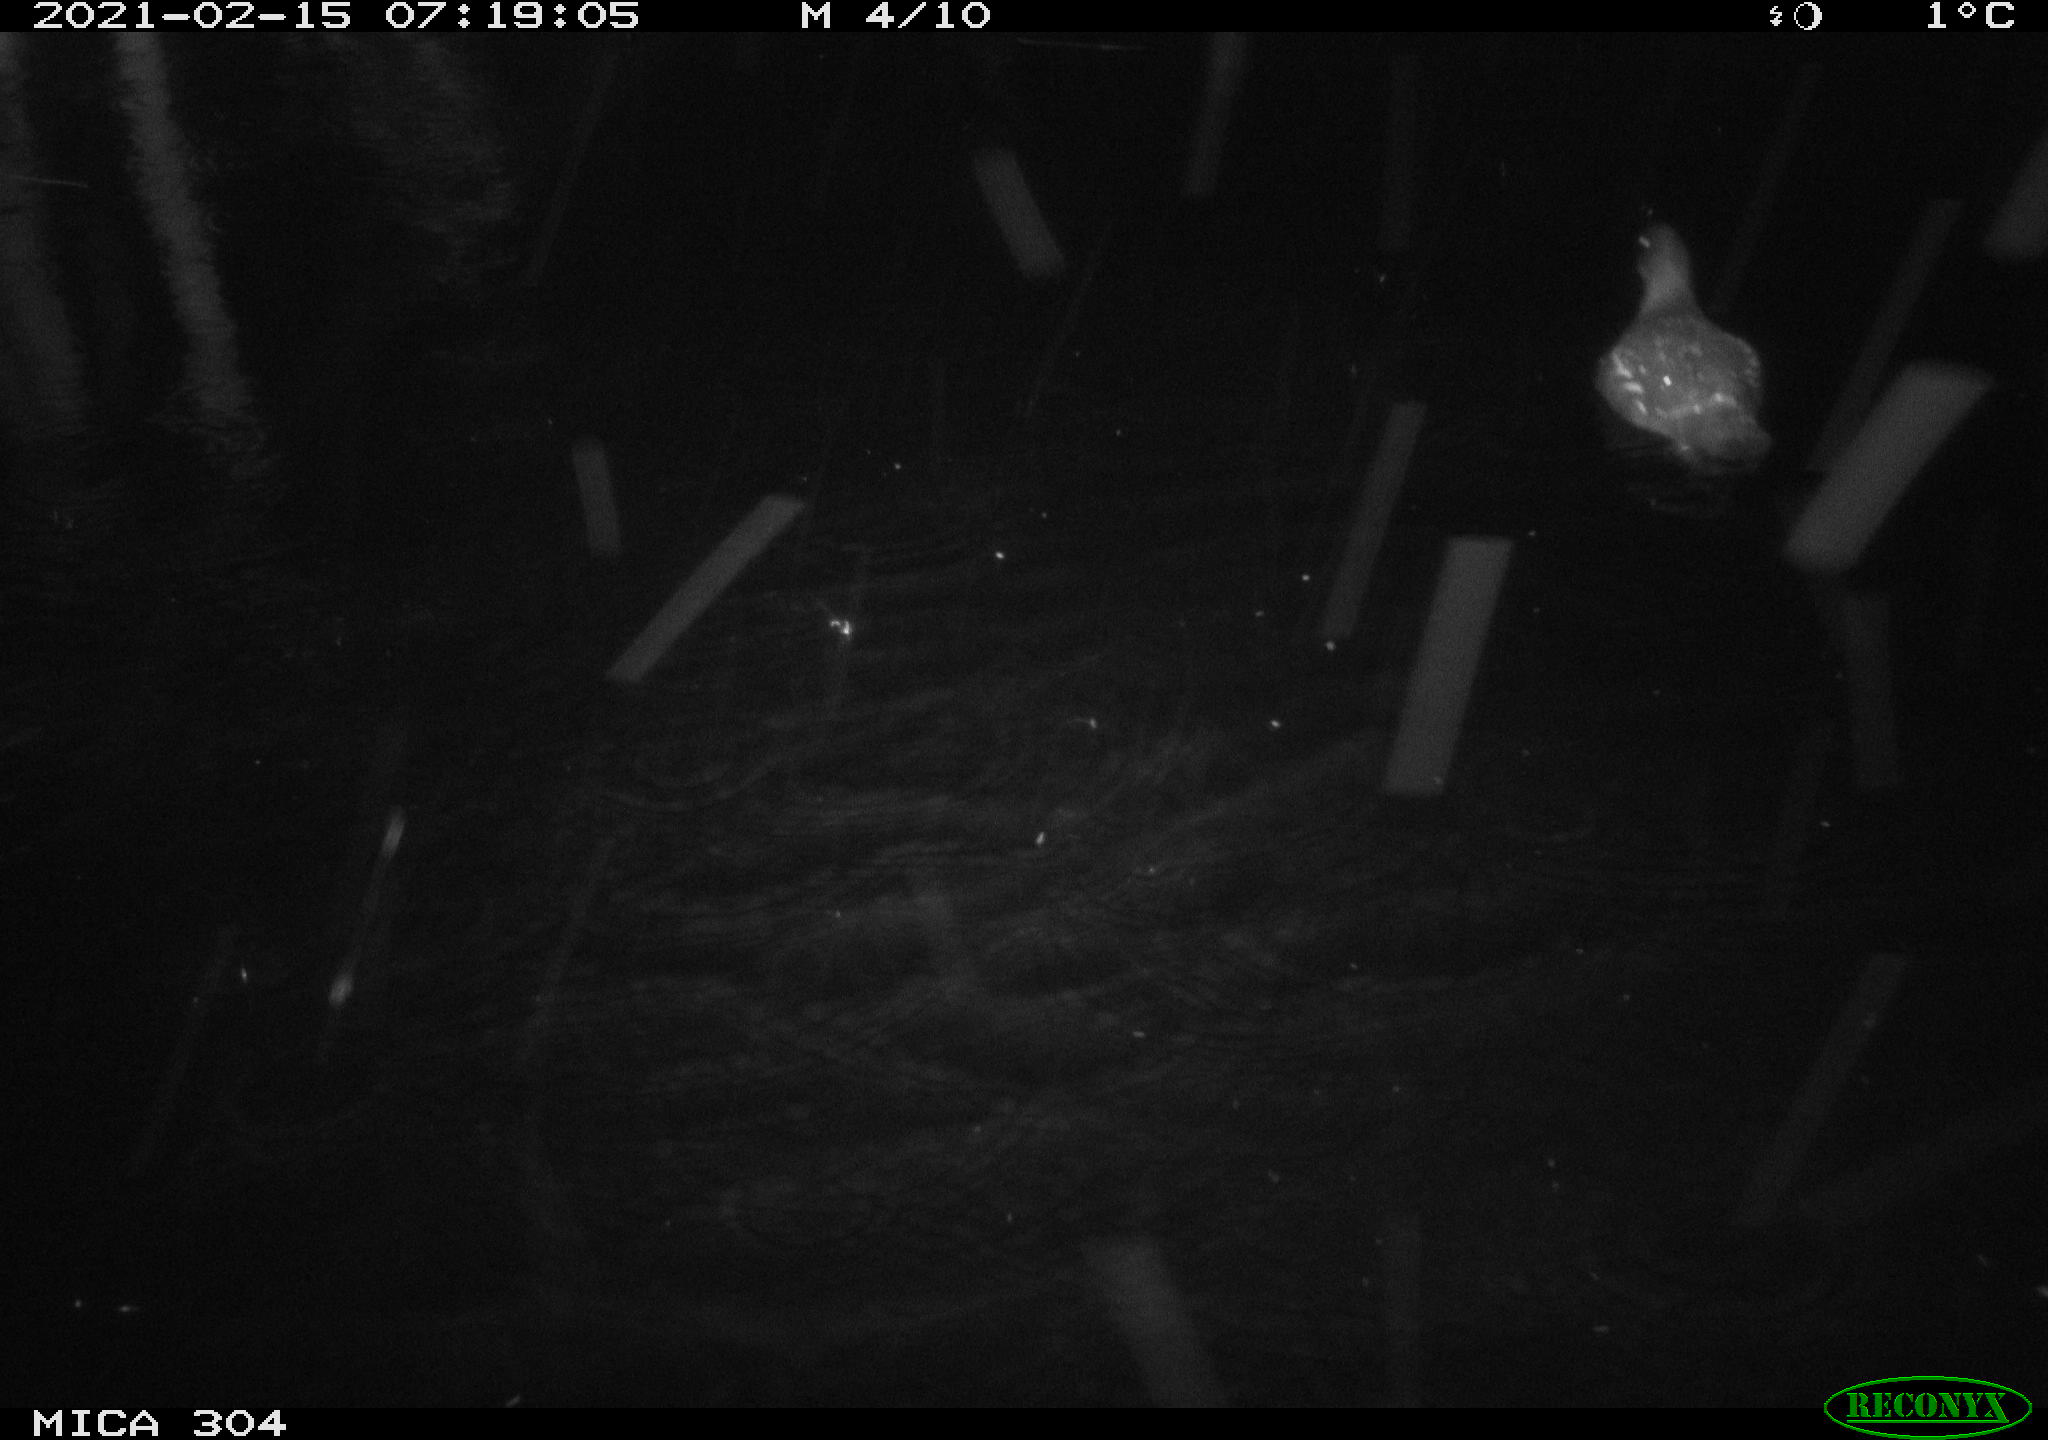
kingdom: Animalia
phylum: Chordata
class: Aves
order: Gruiformes
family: Rallidae
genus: Gallinula
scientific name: Gallinula chloropus
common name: Common moorhen
